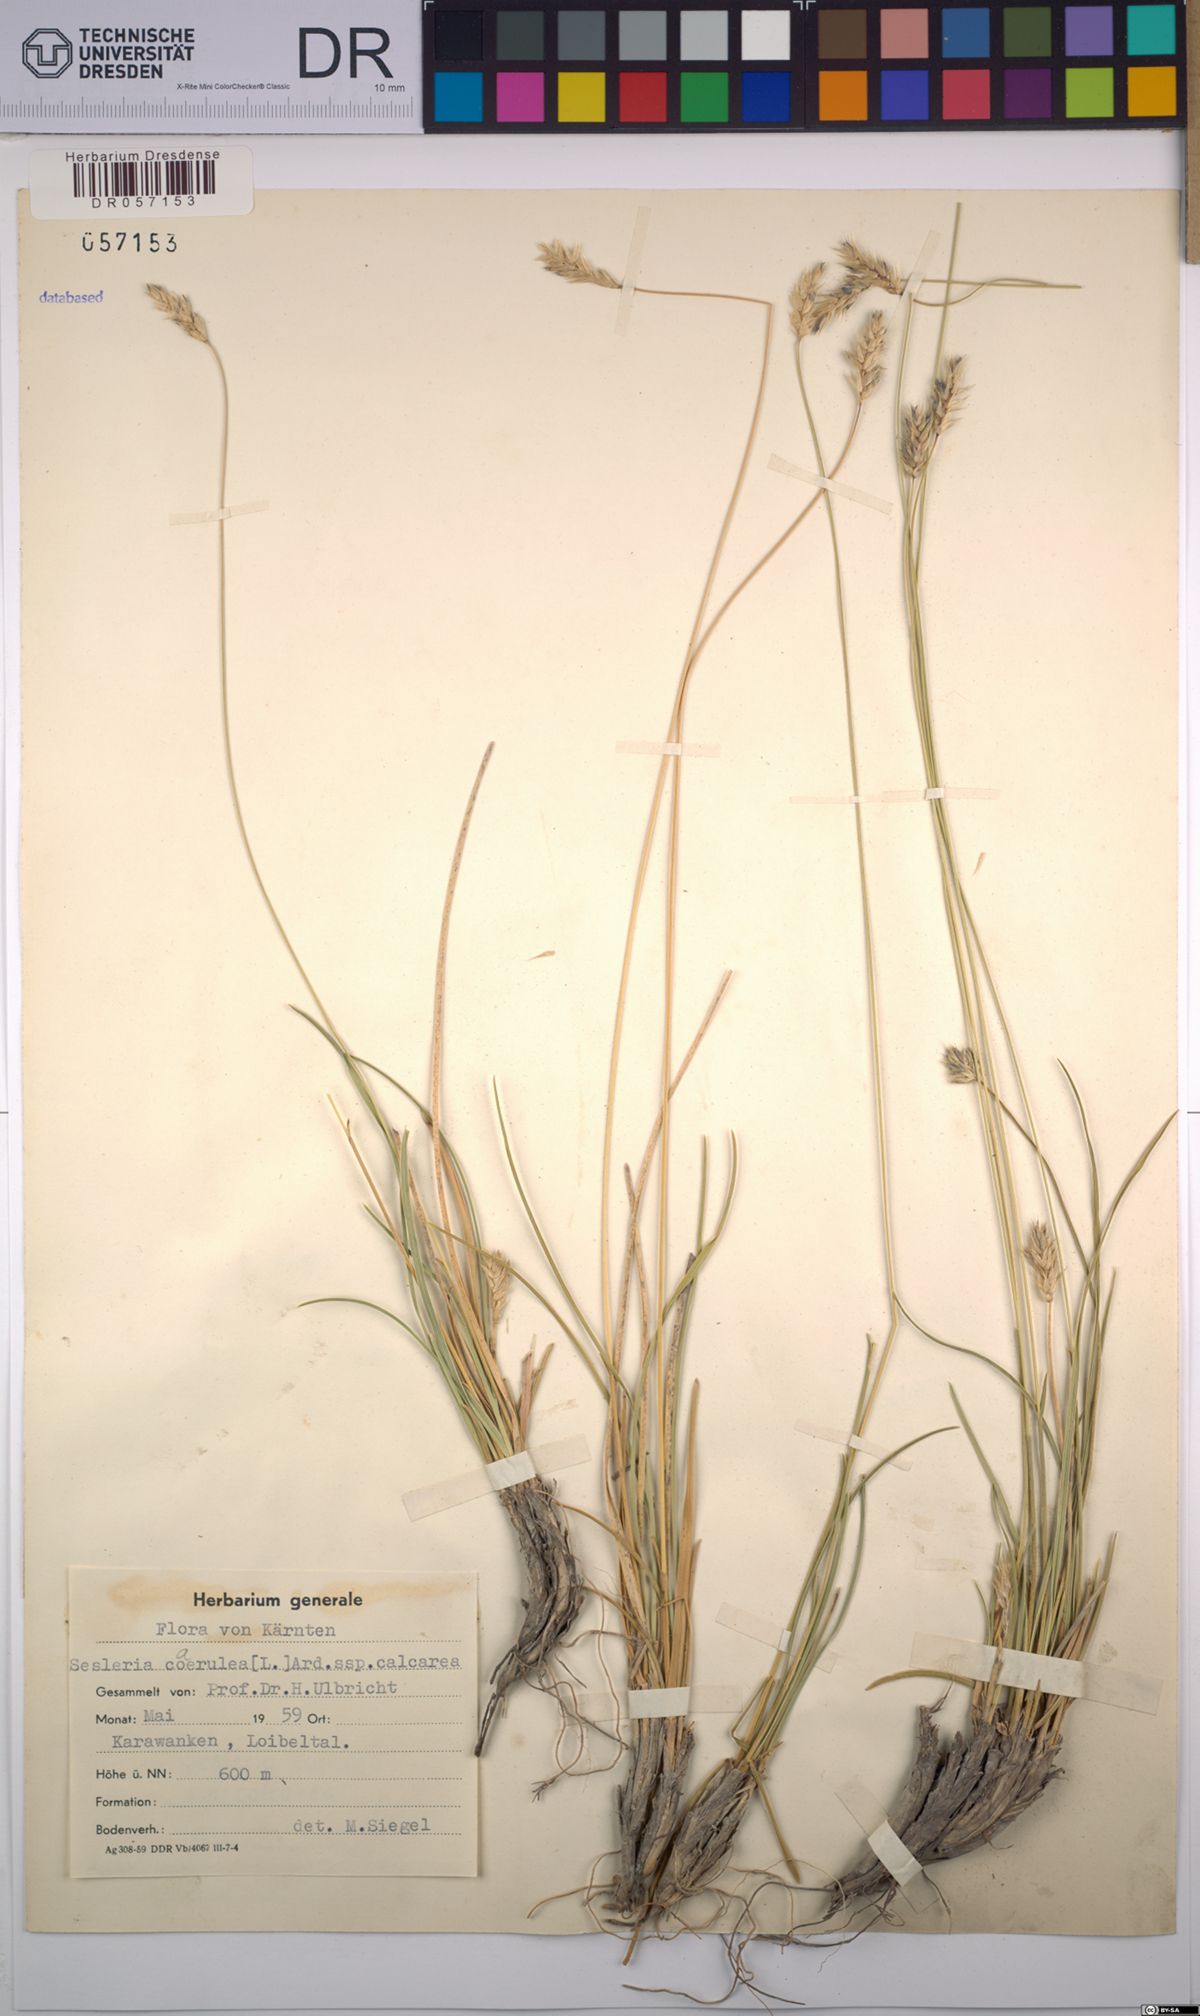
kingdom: Plantae
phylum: Tracheophyta
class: Liliopsida
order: Poales
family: Poaceae
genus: Sesleria
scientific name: Sesleria caerulea
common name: Blue moor-grass
